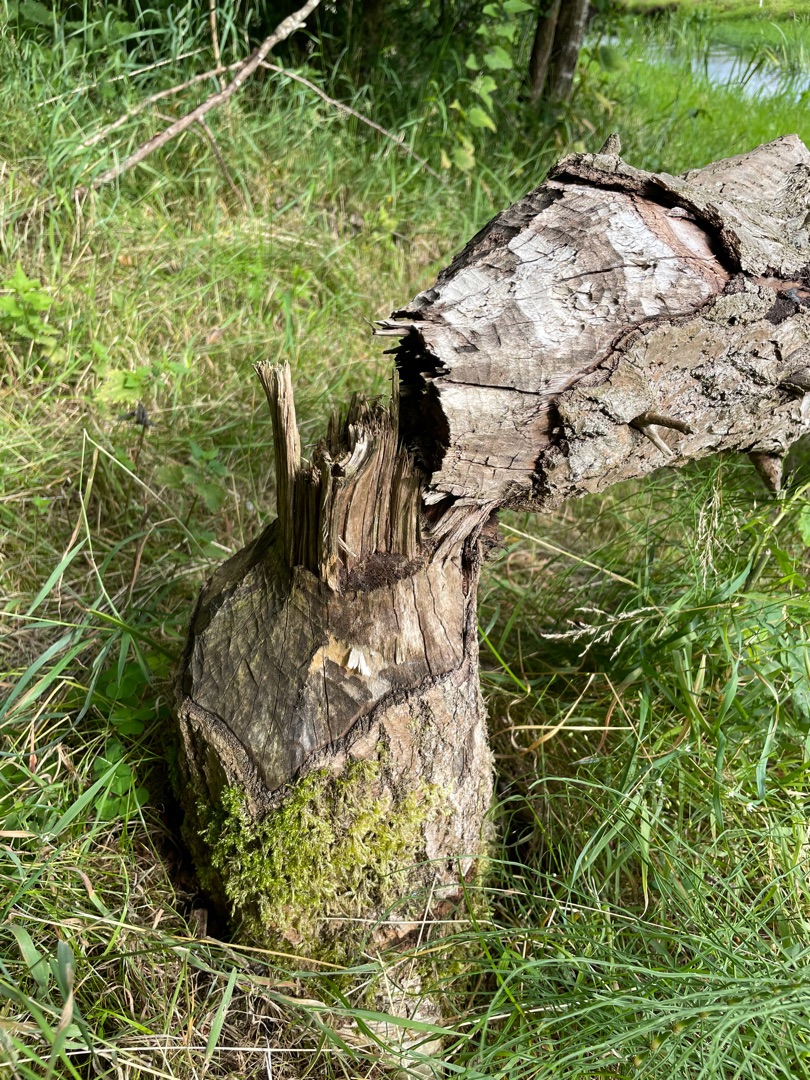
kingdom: Animalia
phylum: Chordata
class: Mammalia
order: Rodentia
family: Castoridae
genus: Castor
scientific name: Castor fiber
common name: Bæver
